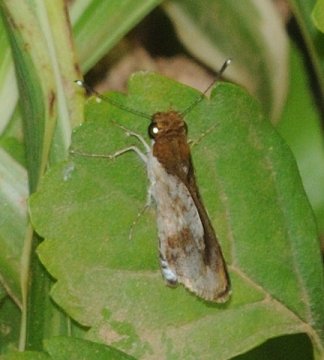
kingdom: Animalia
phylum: Arthropoda
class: Insecta
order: Lepidoptera
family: Hesperiidae
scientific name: Hesperiidae
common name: Skippers
